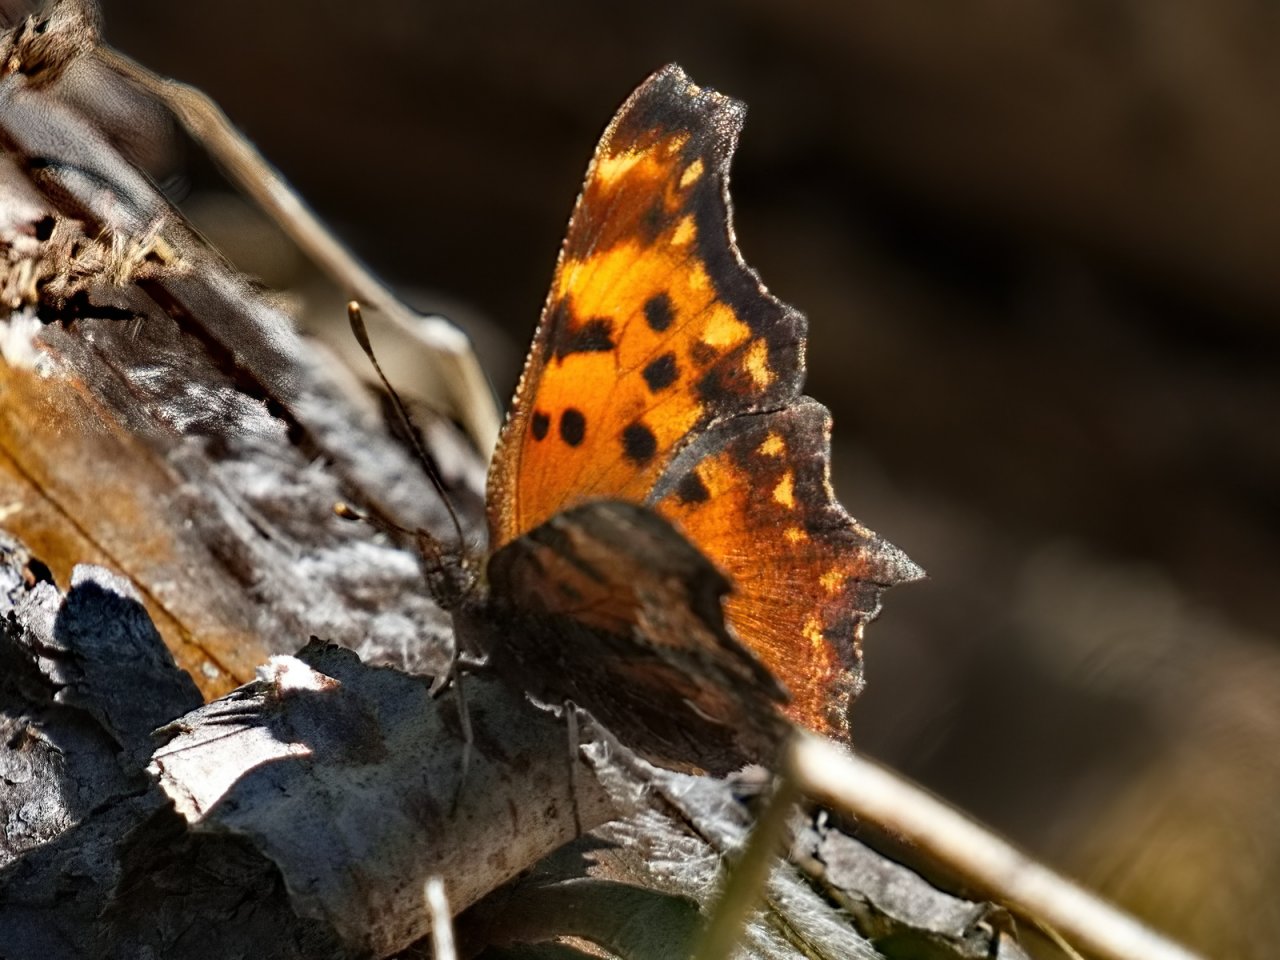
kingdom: Animalia
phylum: Arthropoda
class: Insecta
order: Lepidoptera
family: Nymphalidae
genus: Polygonia
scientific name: Polygonia gracilis
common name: Hoary Comma
